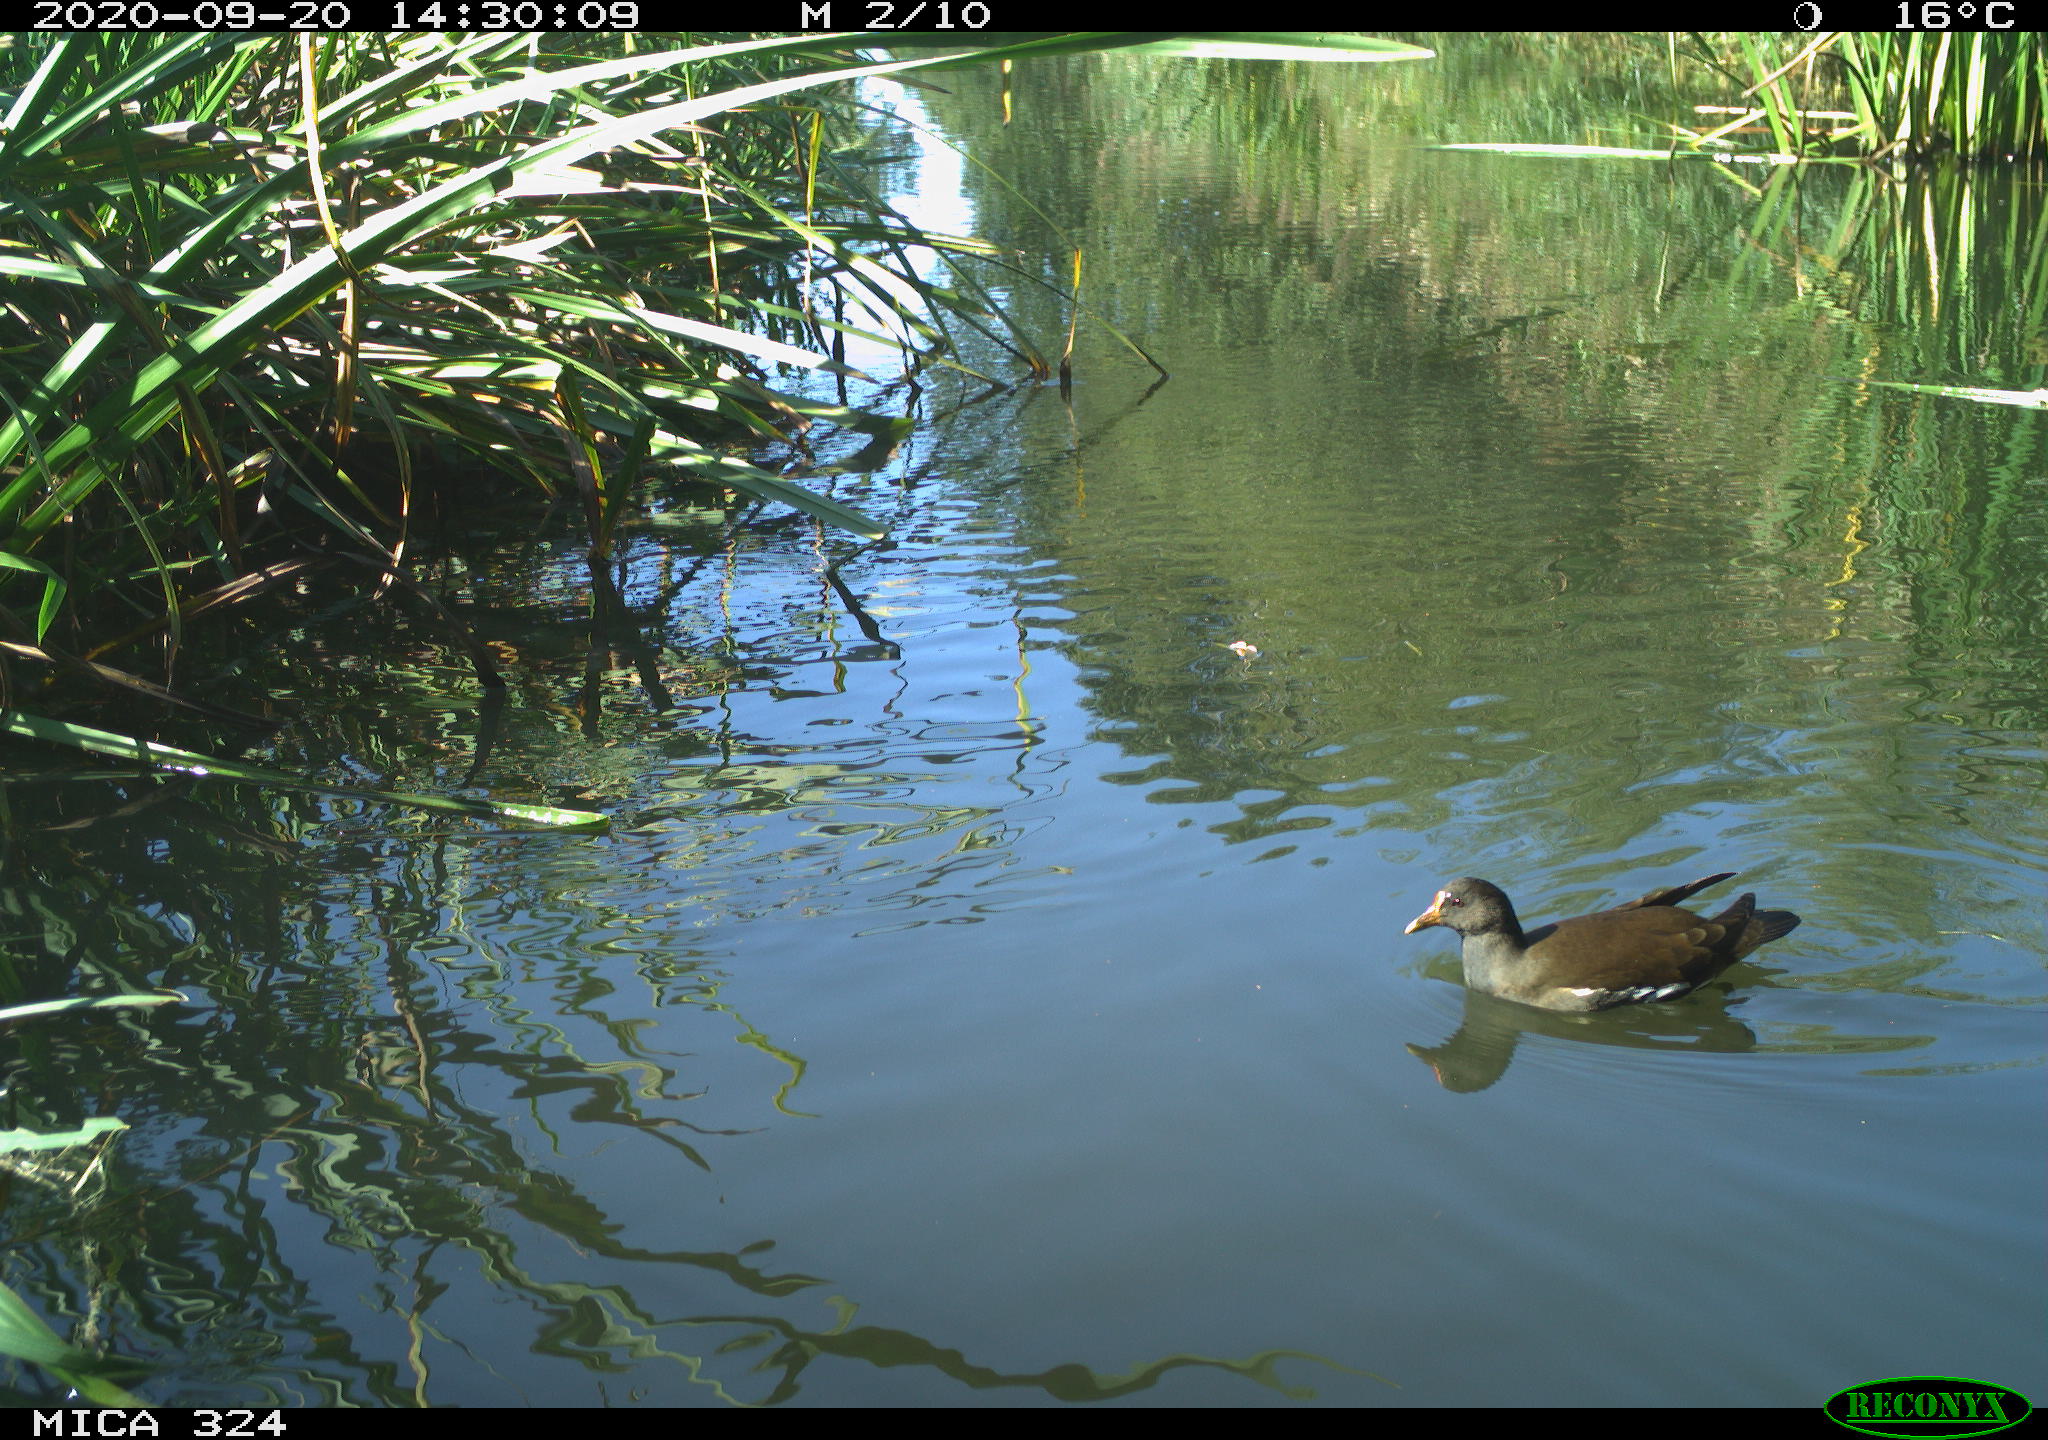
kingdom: Animalia
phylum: Chordata
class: Aves
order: Gruiformes
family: Rallidae
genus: Gallinula
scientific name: Gallinula chloropus
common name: Common moorhen
